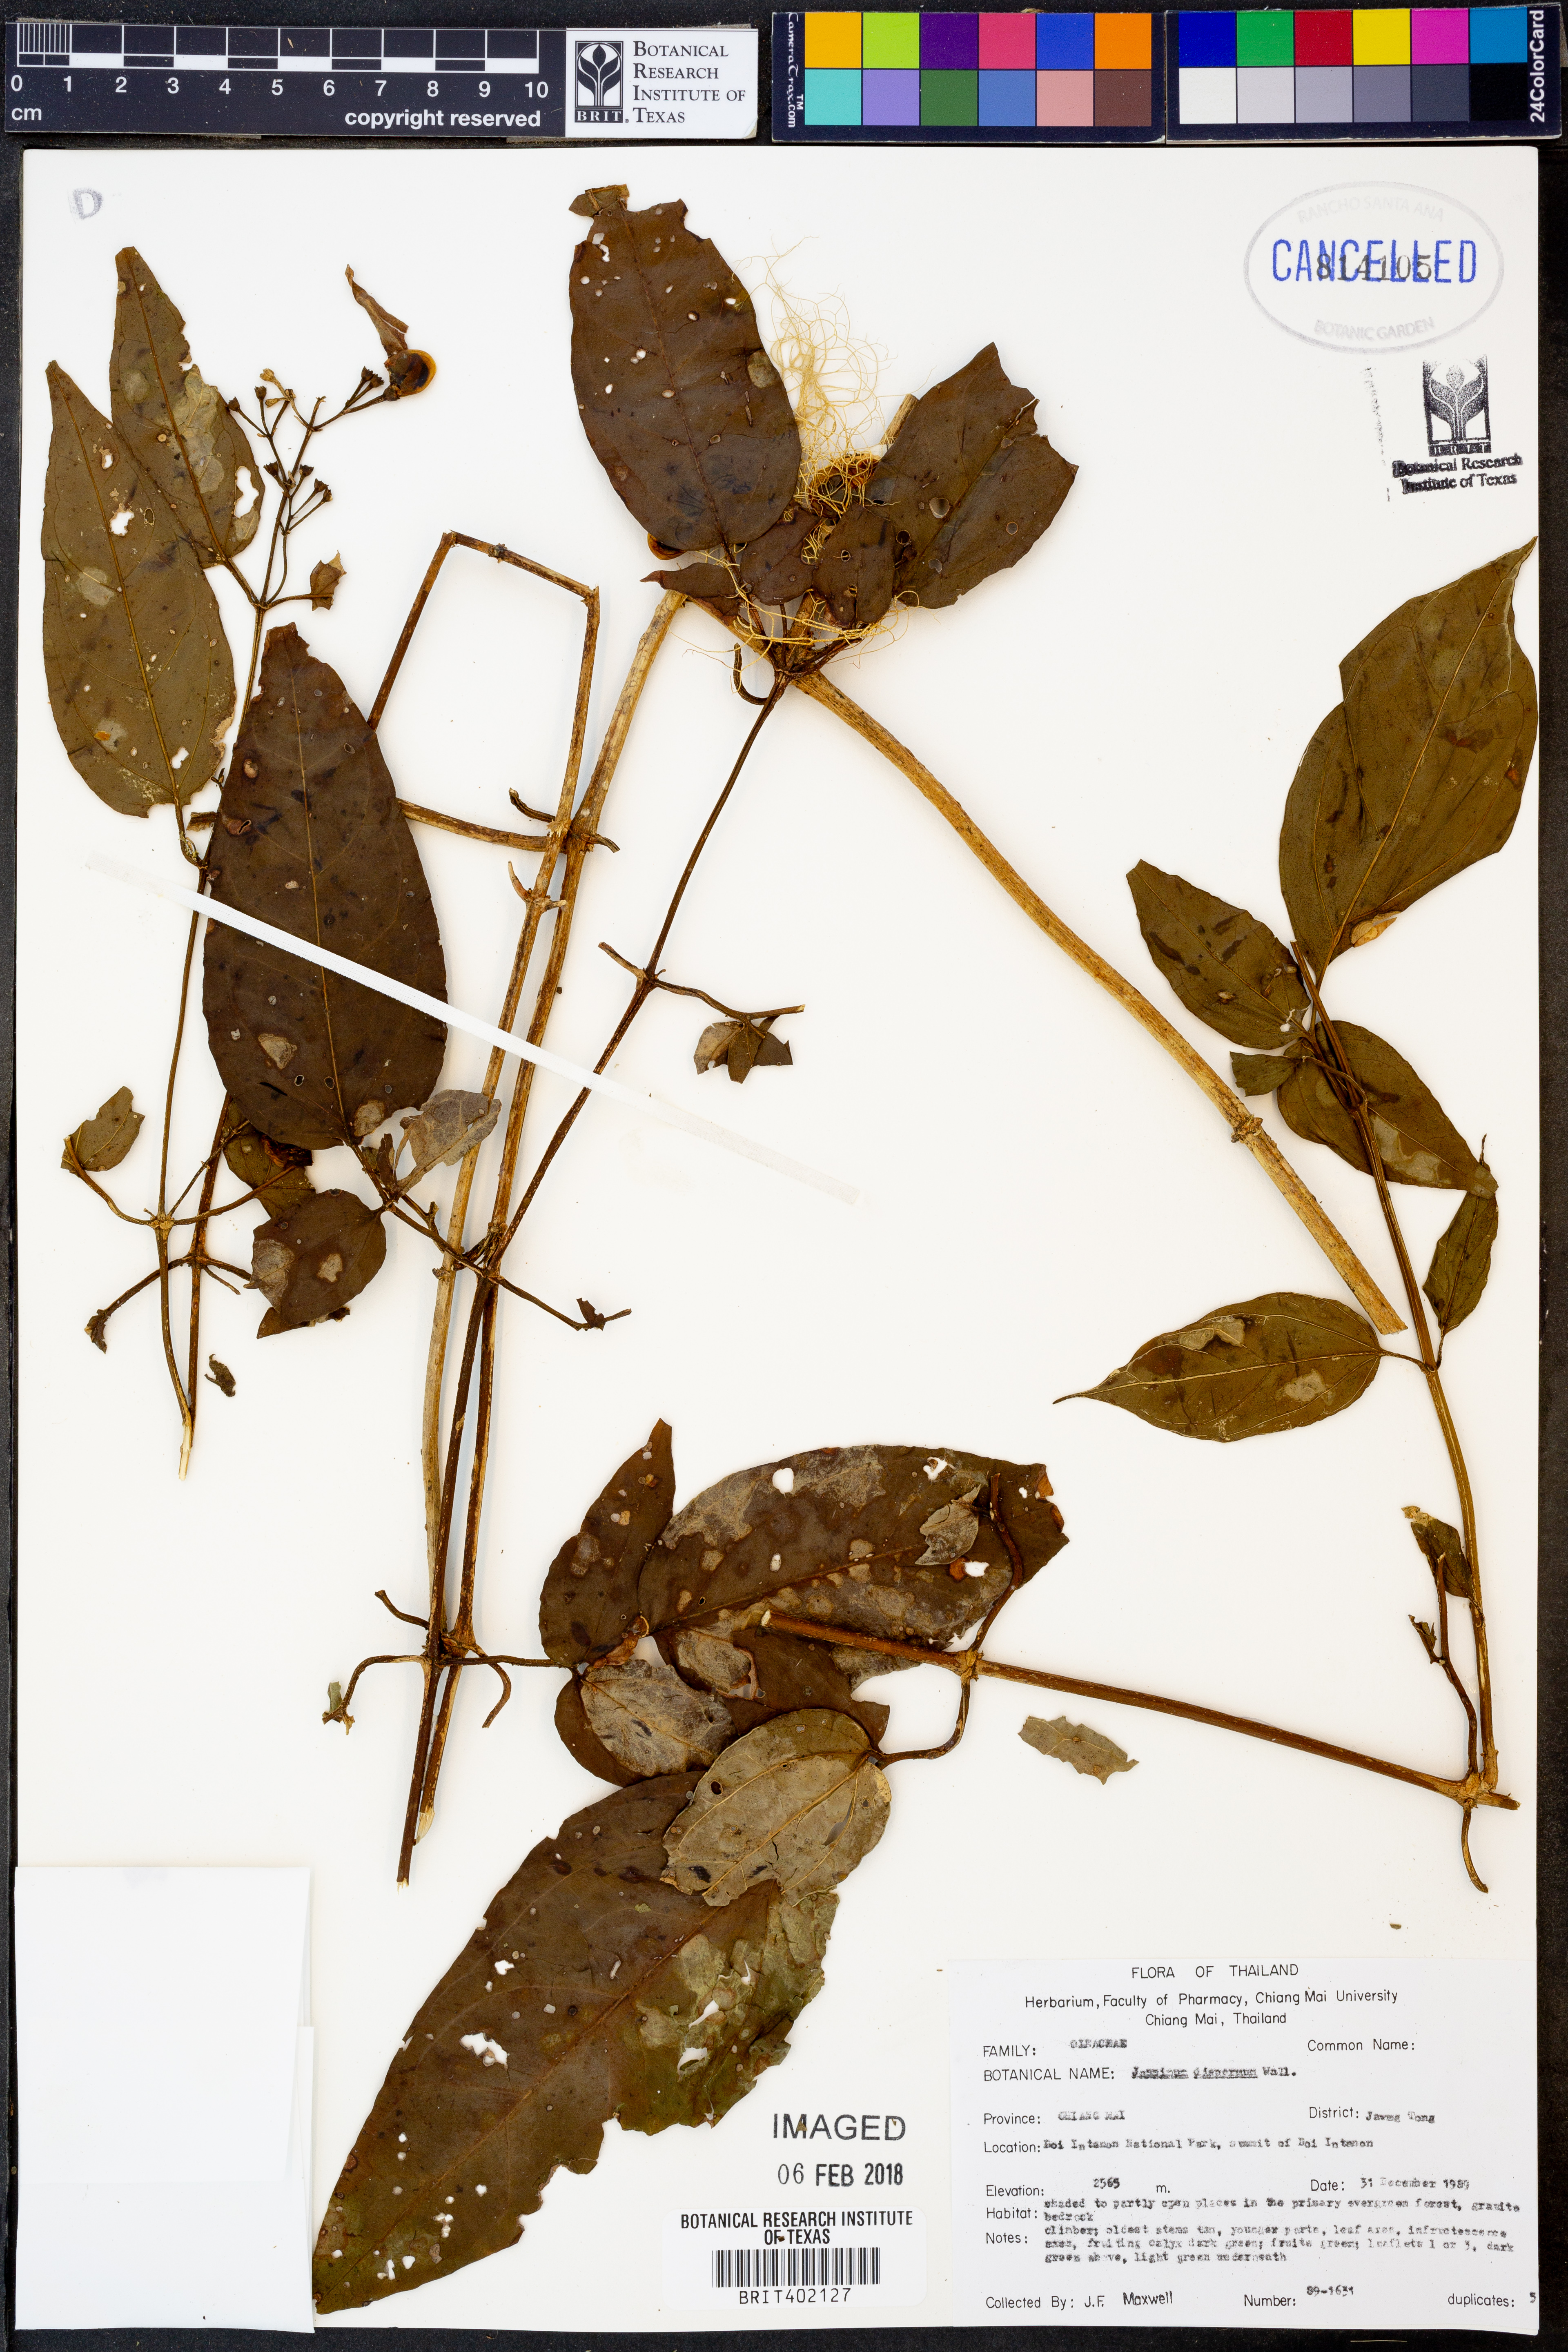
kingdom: Plantae
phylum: Tracheophyta
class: Magnoliopsida
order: Lamiales
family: Oleaceae
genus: Jasminum
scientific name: Jasminum dispermum
